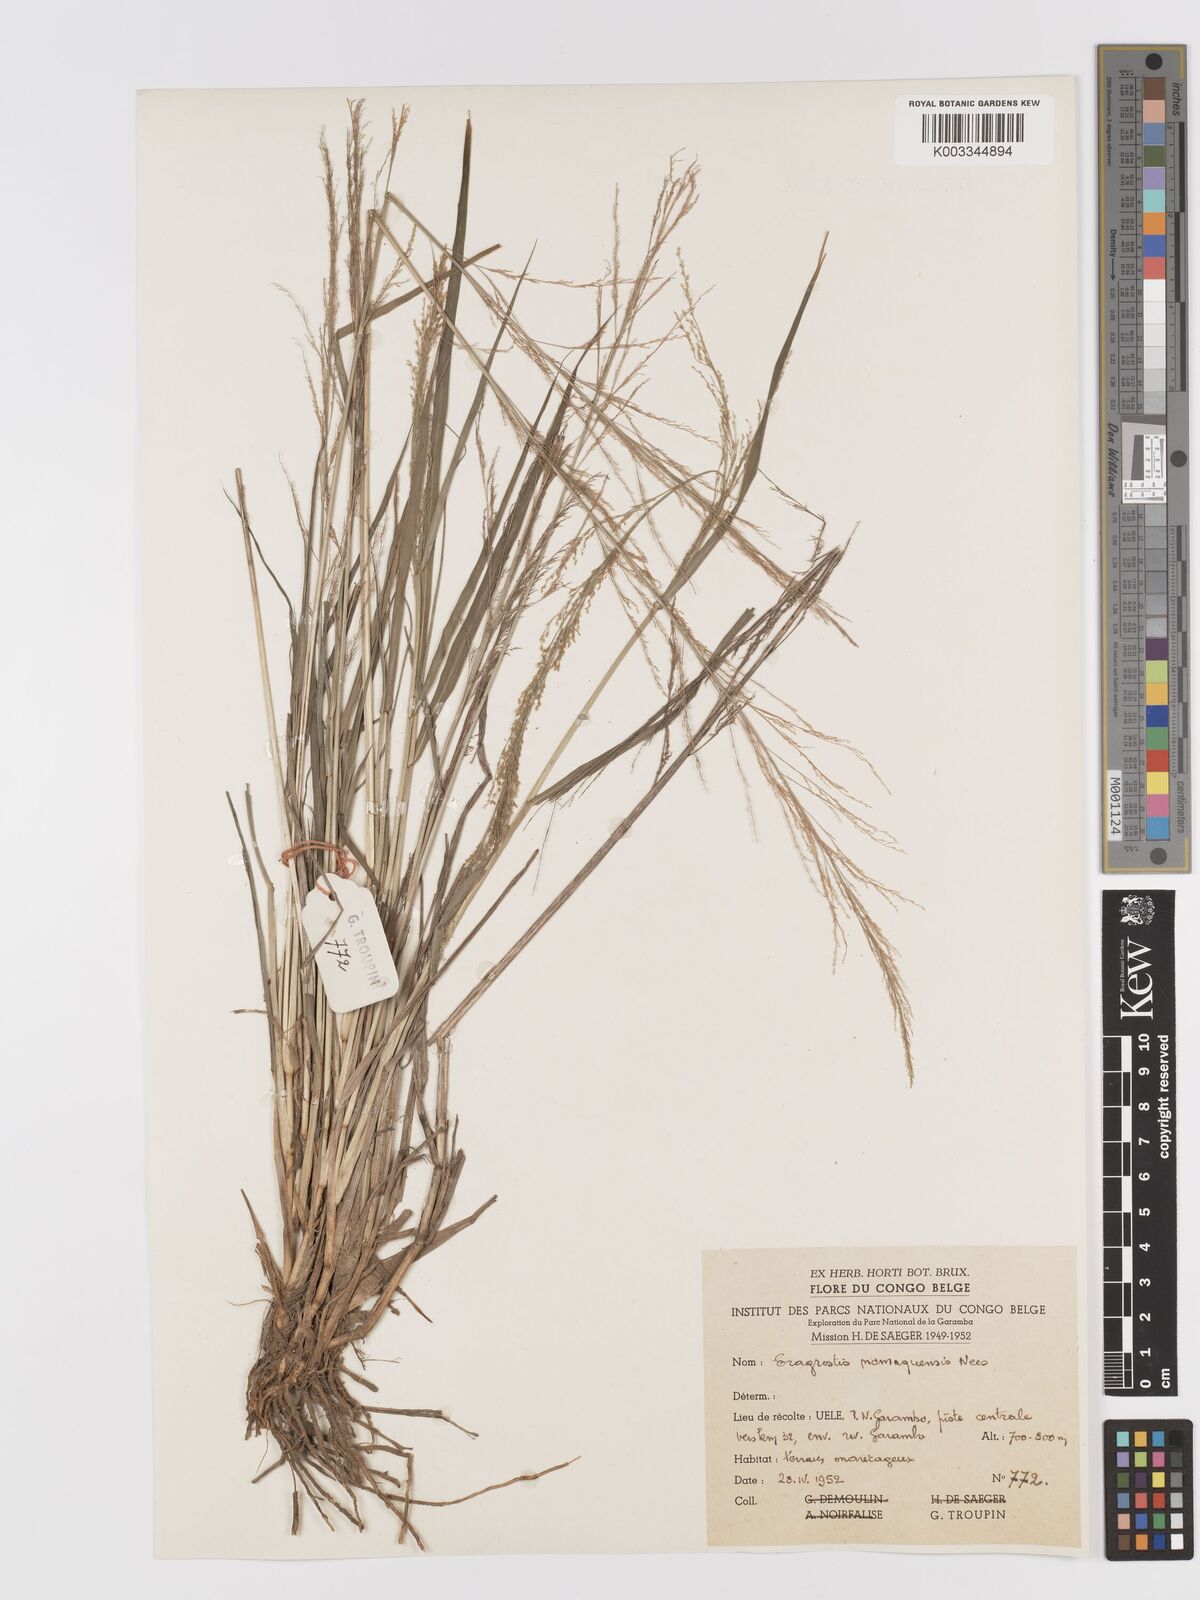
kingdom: Plantae
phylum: Tracheophyta
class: Liliopsida
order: Poales
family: Poaceae
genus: Eragrostis
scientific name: Eragrostis japonica
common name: Pond lovegrass
